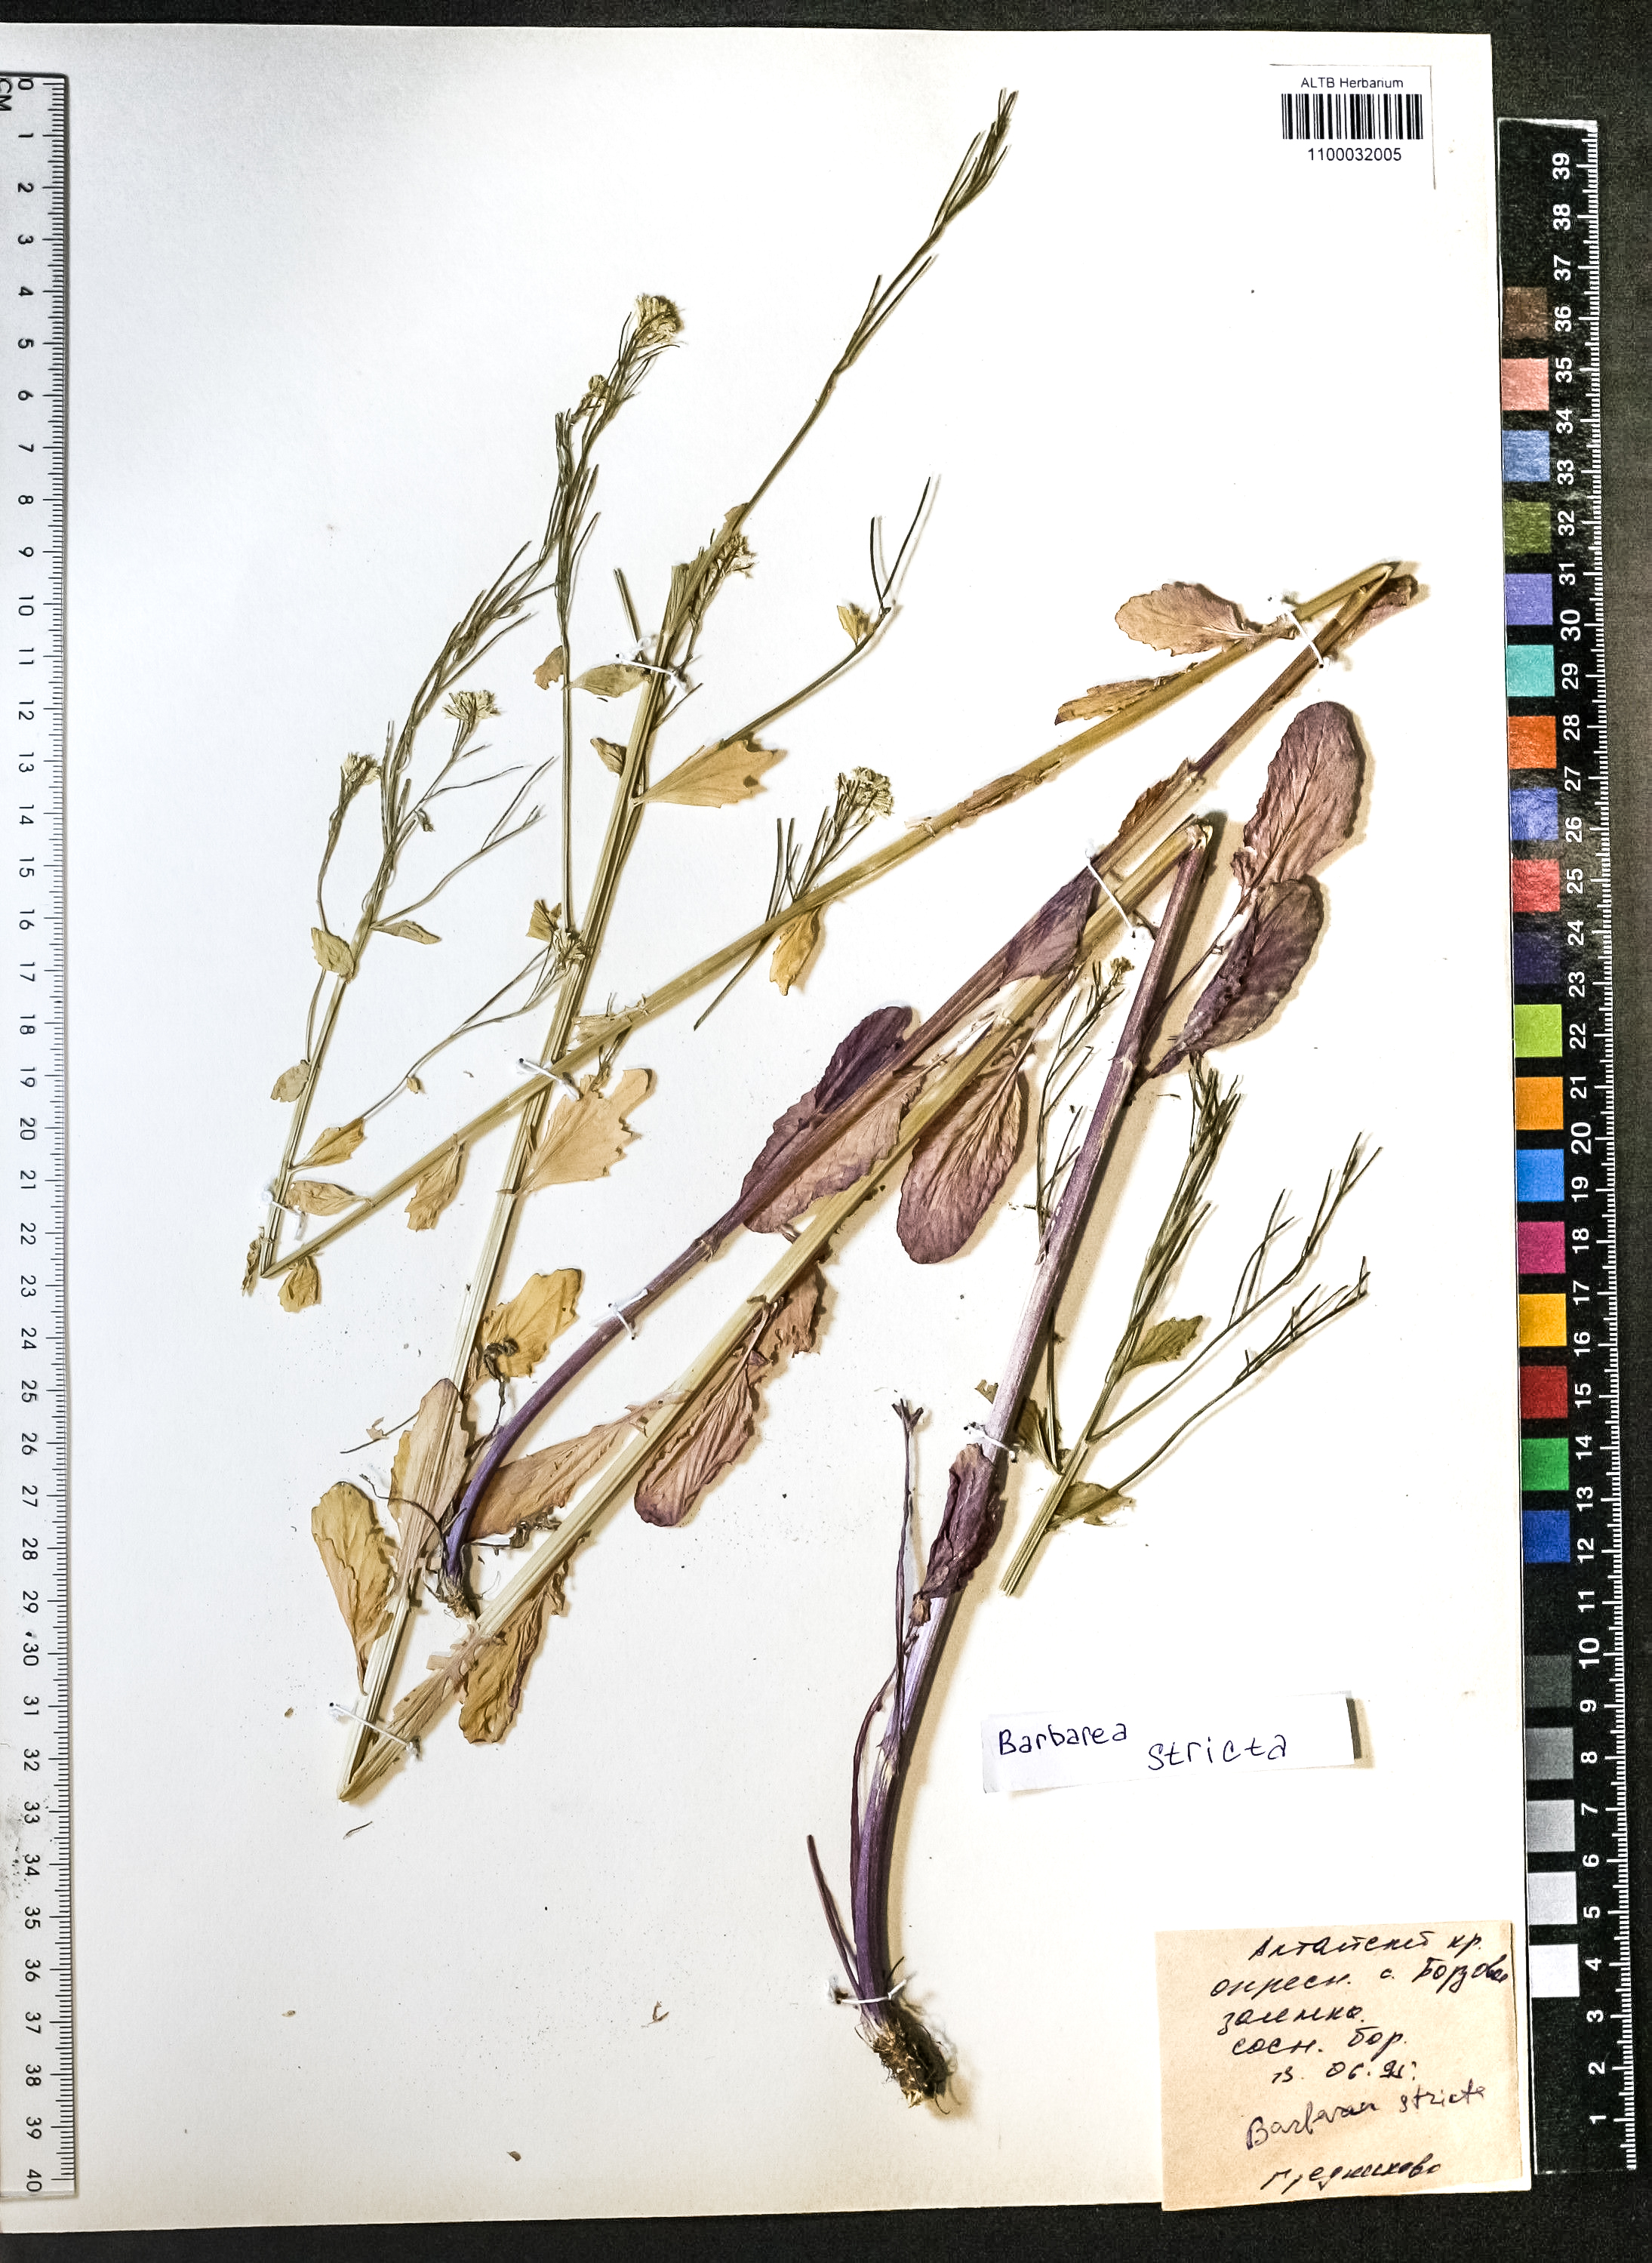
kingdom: Plantae
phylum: Tracheophyta
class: Magnoliopsida
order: Brassicales
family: Brassicaceae
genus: Barbarea
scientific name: Barbarea vulgaris
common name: Cressy-greens
